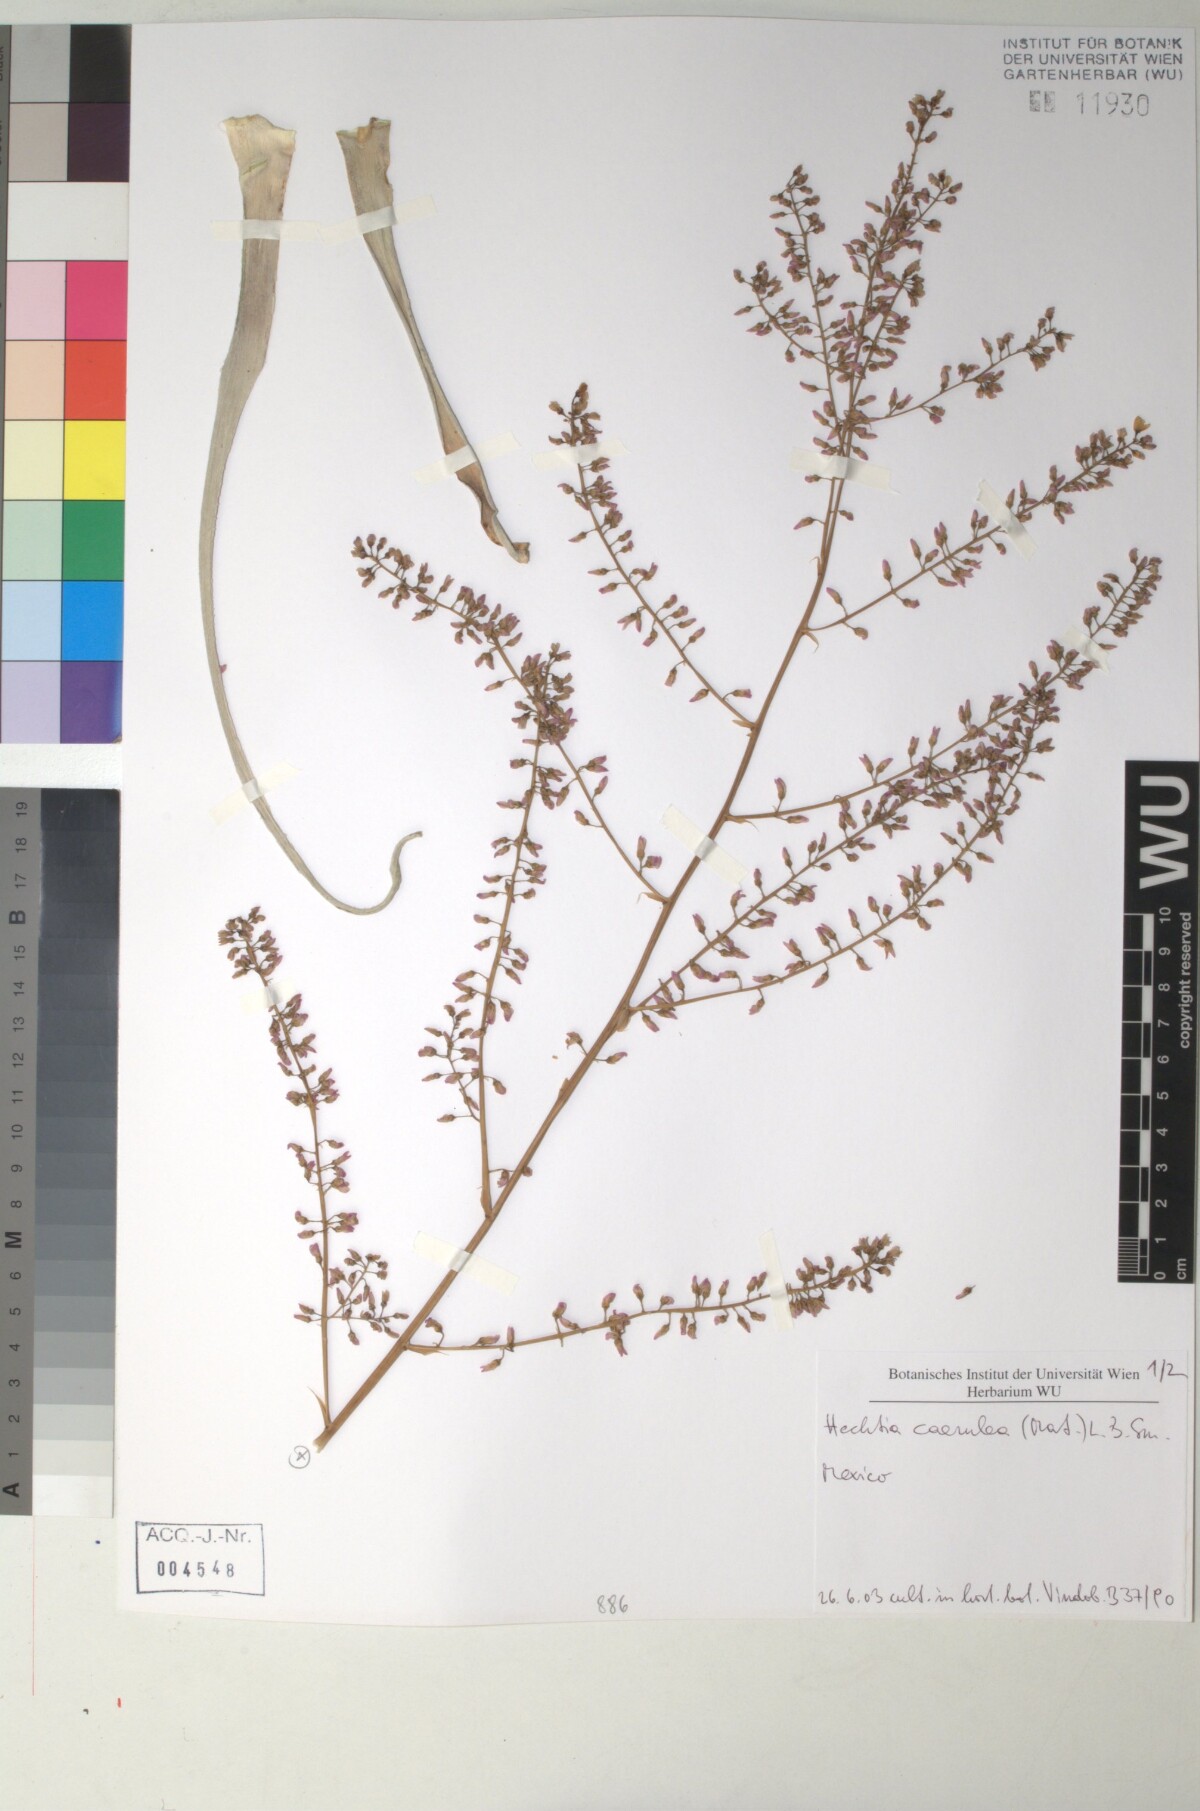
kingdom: Plantae
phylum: Tracheophyta
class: Liliopsida
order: Poales
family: Bromeliaceae
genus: Hechtia
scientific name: Hechtia
